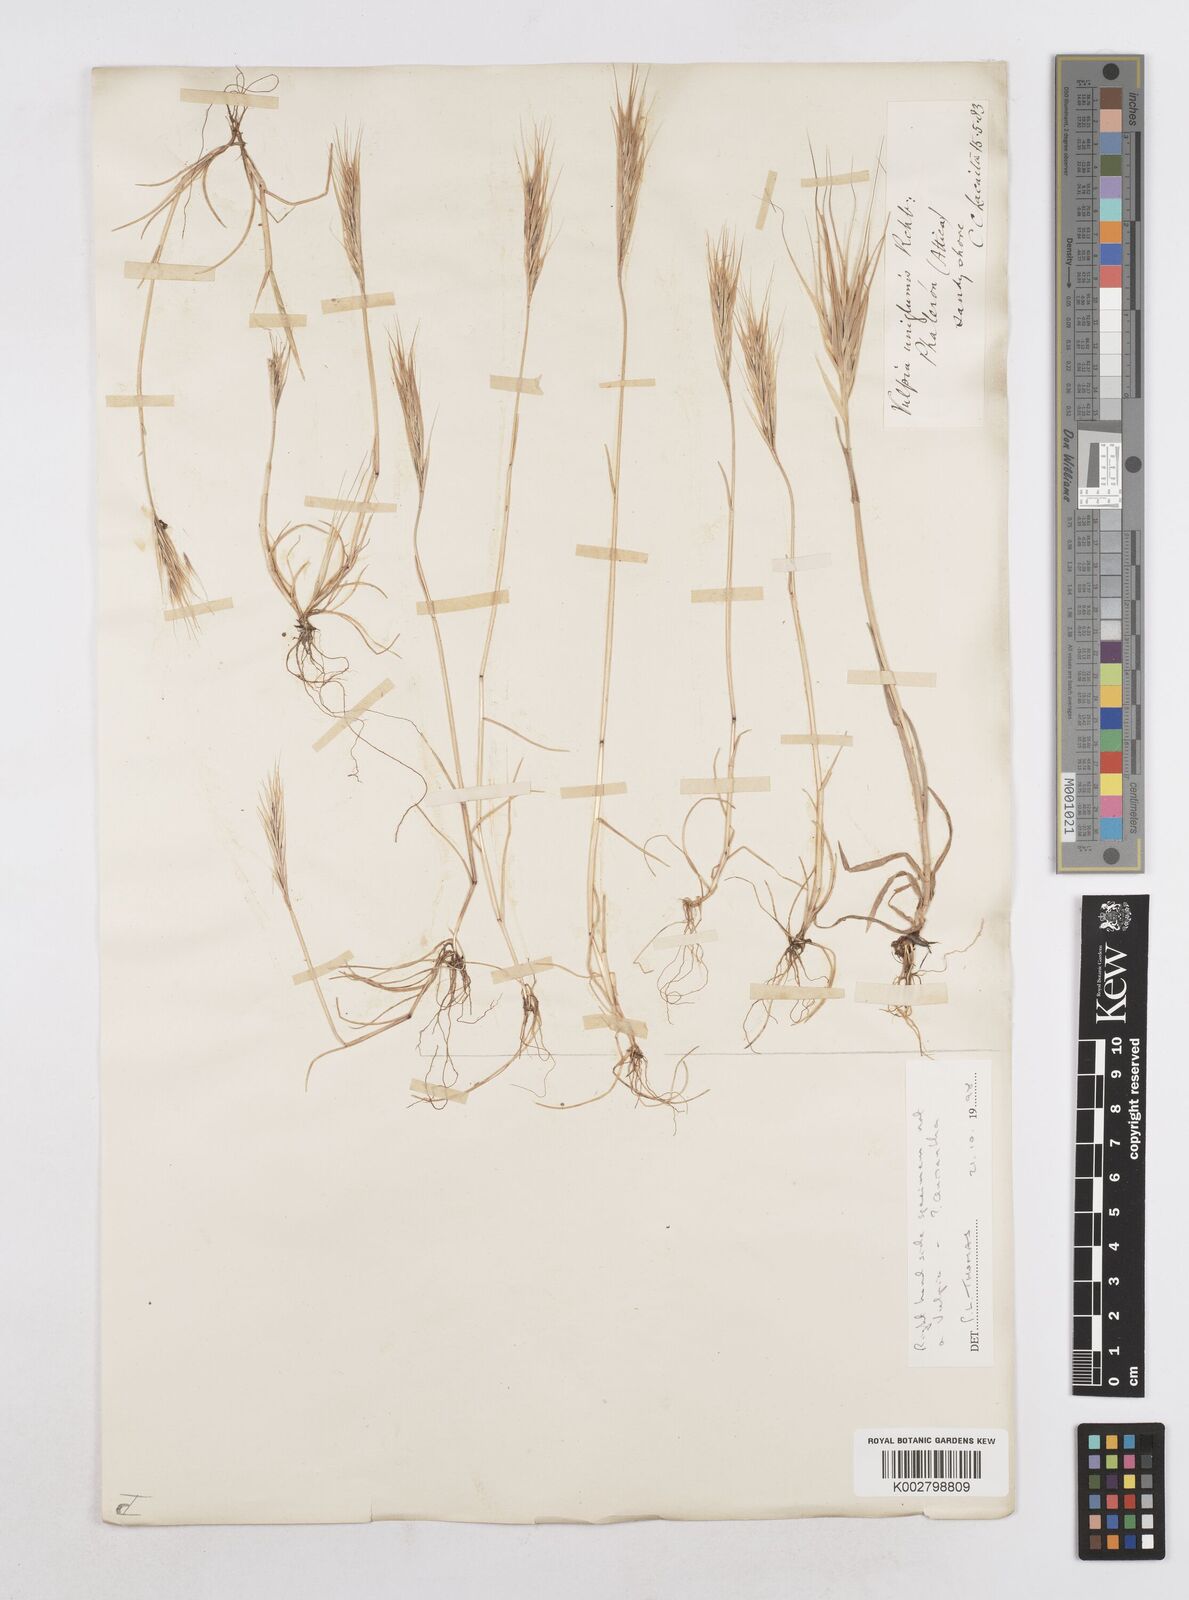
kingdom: Plantae
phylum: Tracheophyta
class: Liliopsida
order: Poales
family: Poaceae
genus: Festuca
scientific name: Festuca fasciculata
